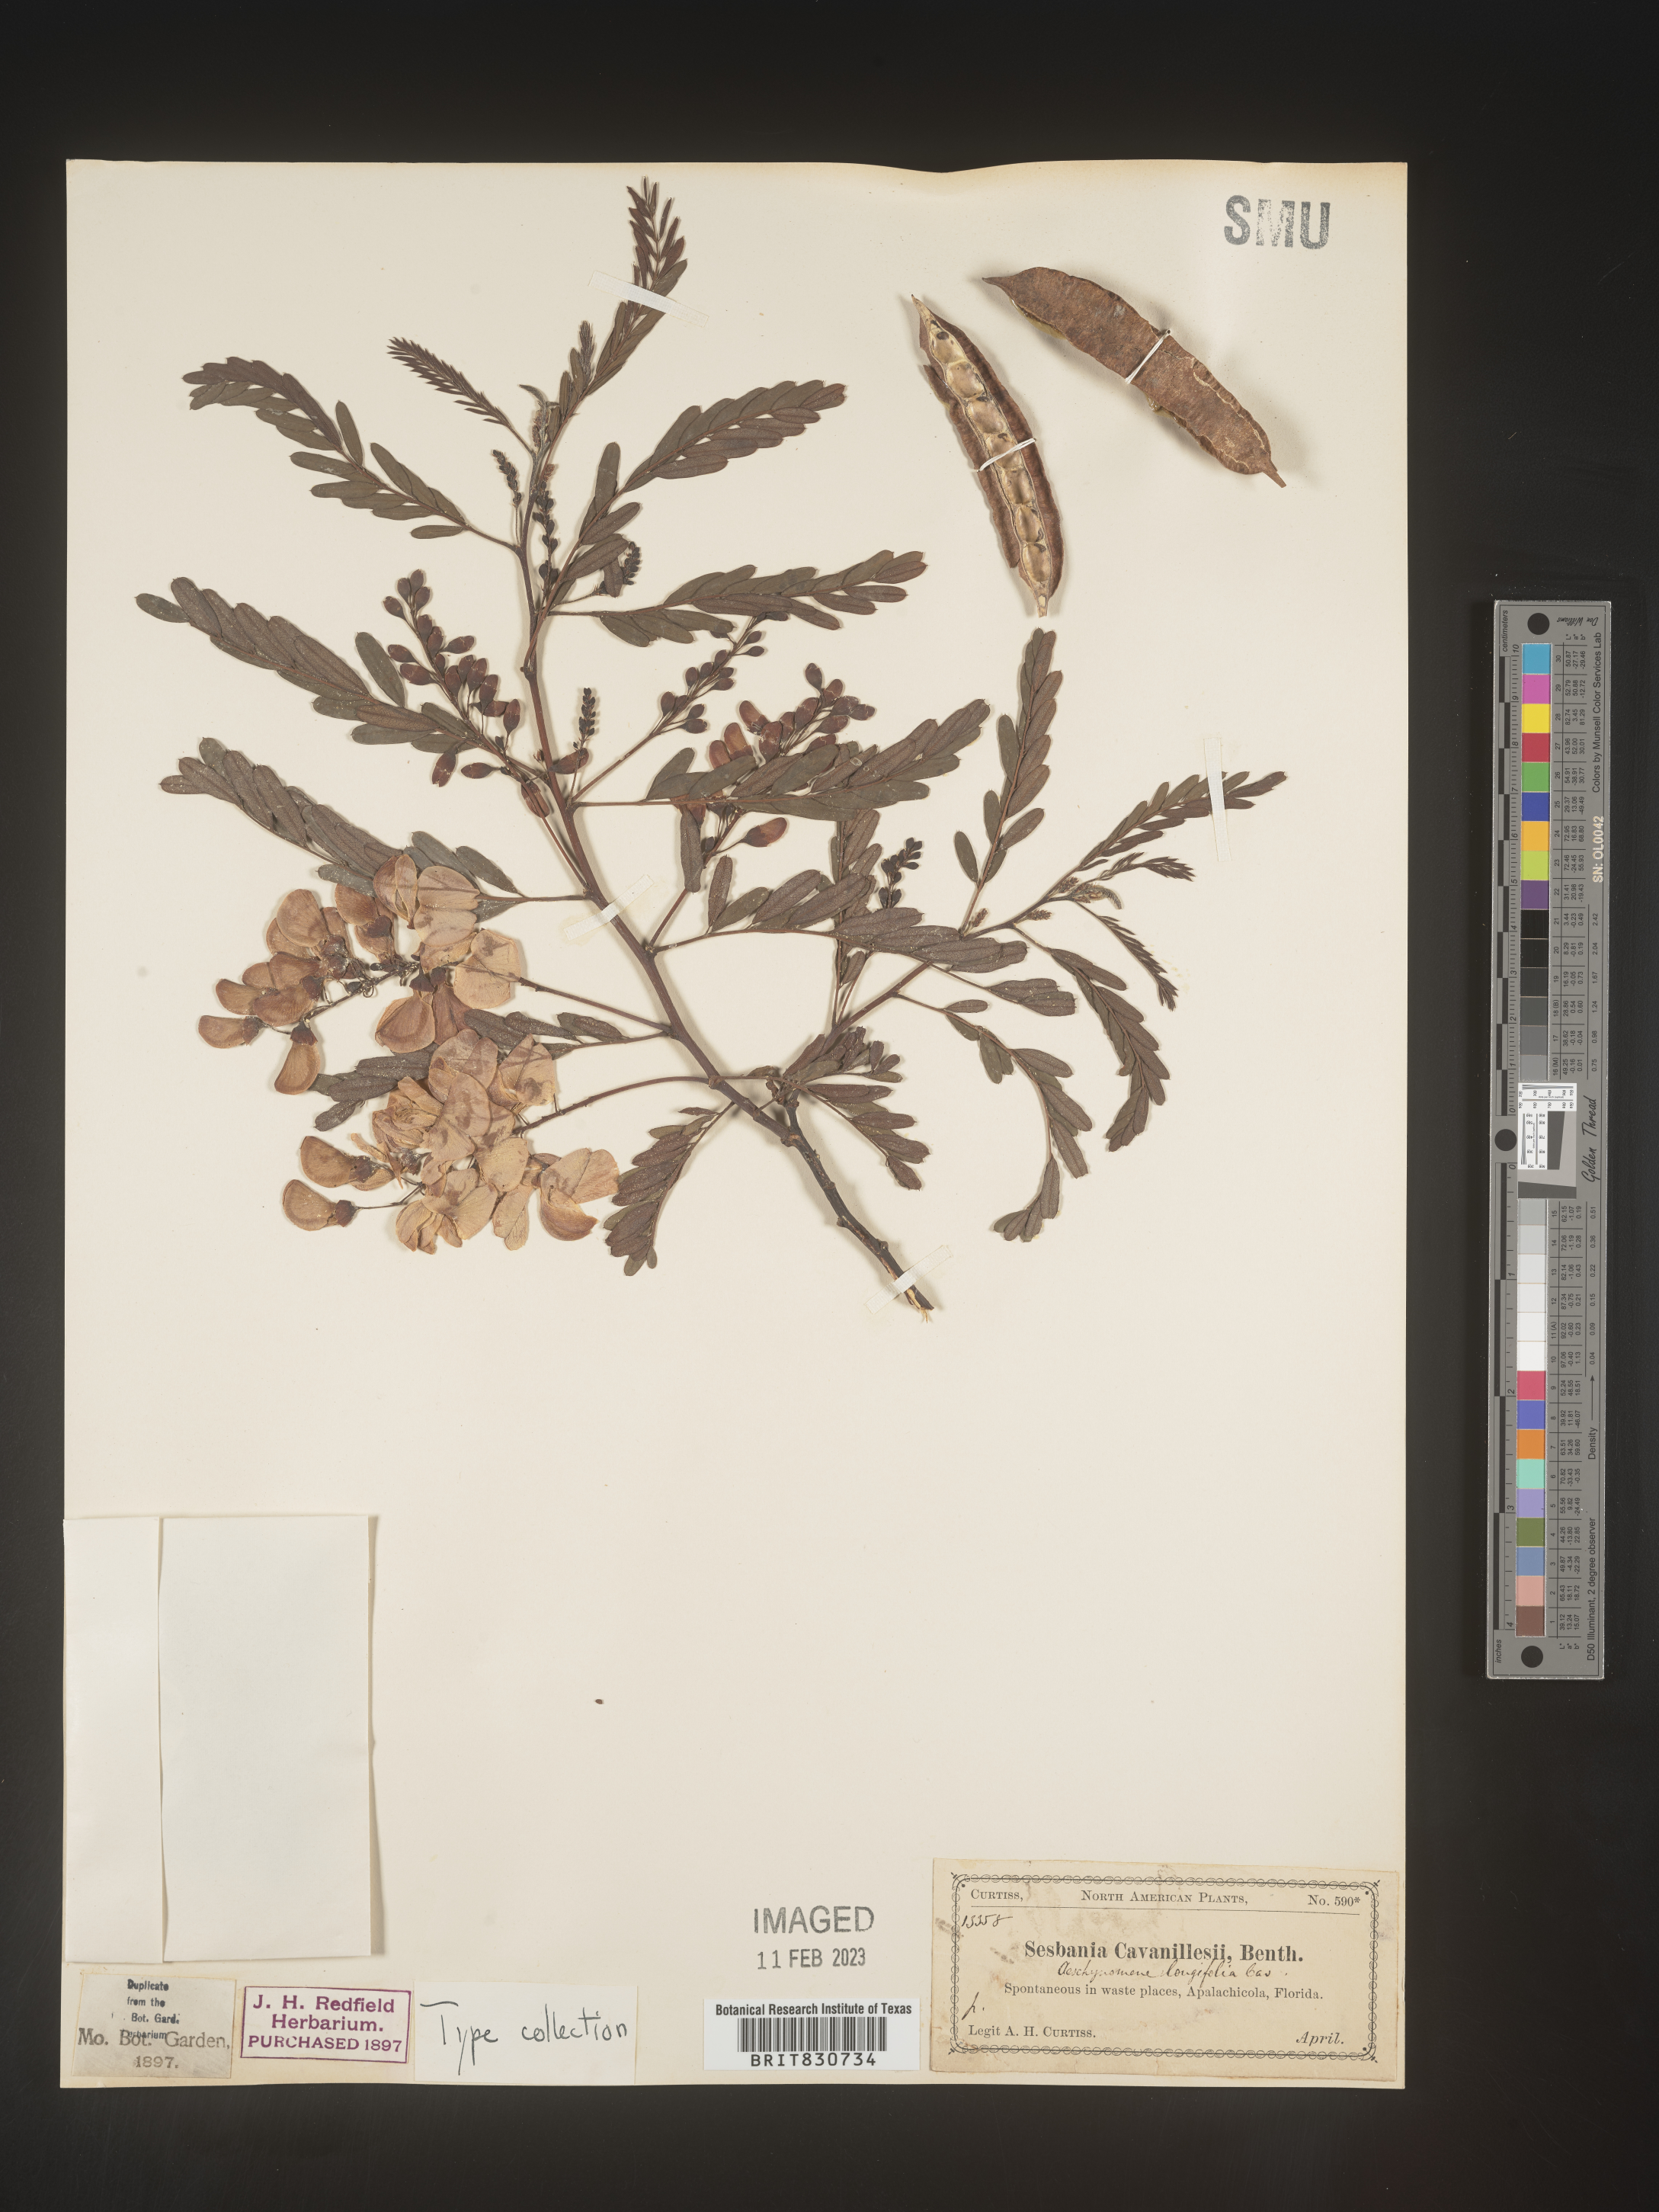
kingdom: Plantae
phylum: Tracheophyta
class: Magnoliopsida
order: Fabales
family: Fabaceae
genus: Sesbania
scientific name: Sesbania punicea
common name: Rattlebox
